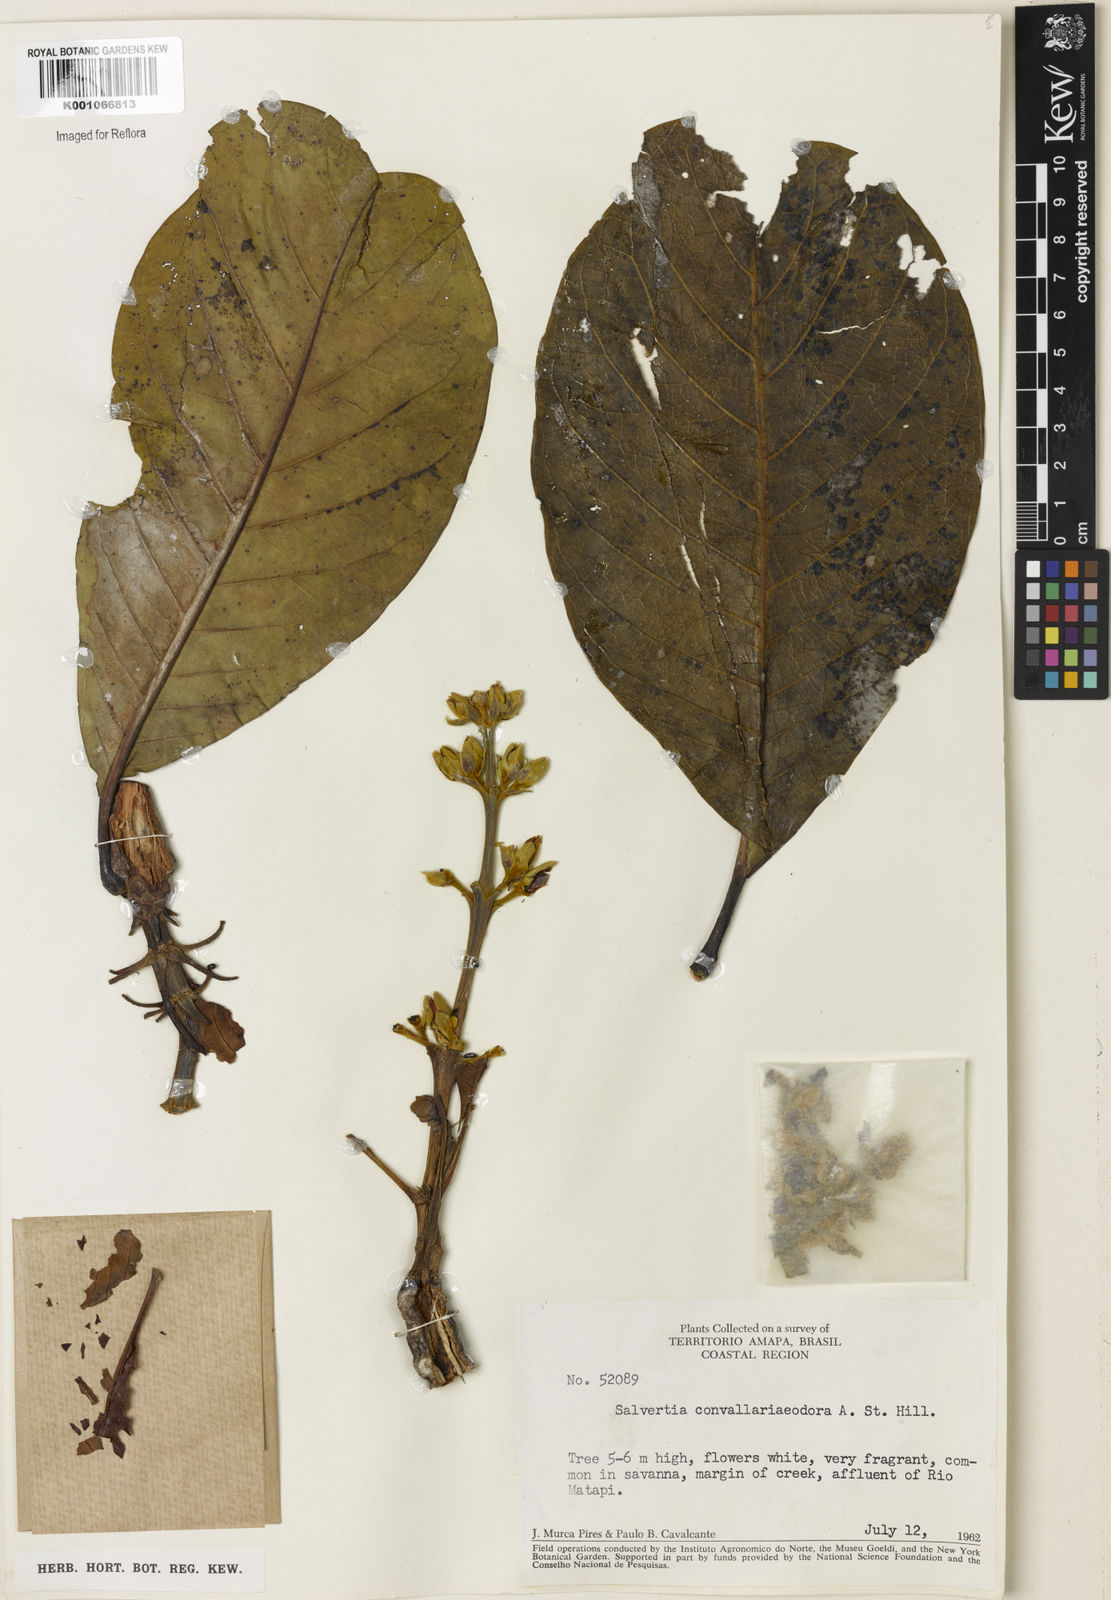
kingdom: Plantae
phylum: Tracheophyta
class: Magnoliopsida
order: Myrtales
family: Vochysiaceae
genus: Salvertia
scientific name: Salvertia convallariodora
